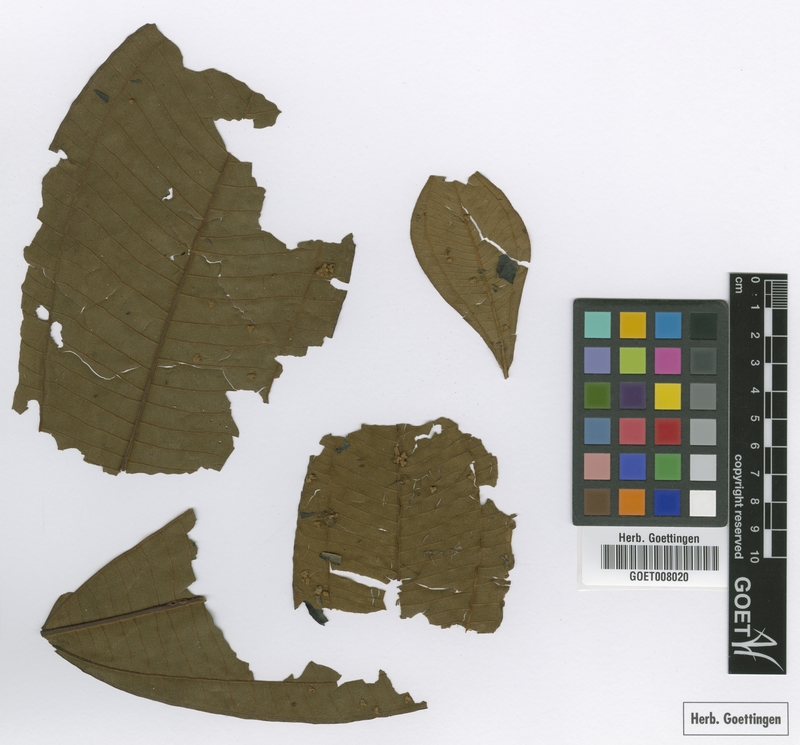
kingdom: Plantae
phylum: Tracheophyta
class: Magnoliopsida
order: Myrtales
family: Melastomataceae
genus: Miconia
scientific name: Miconia sagotiana
